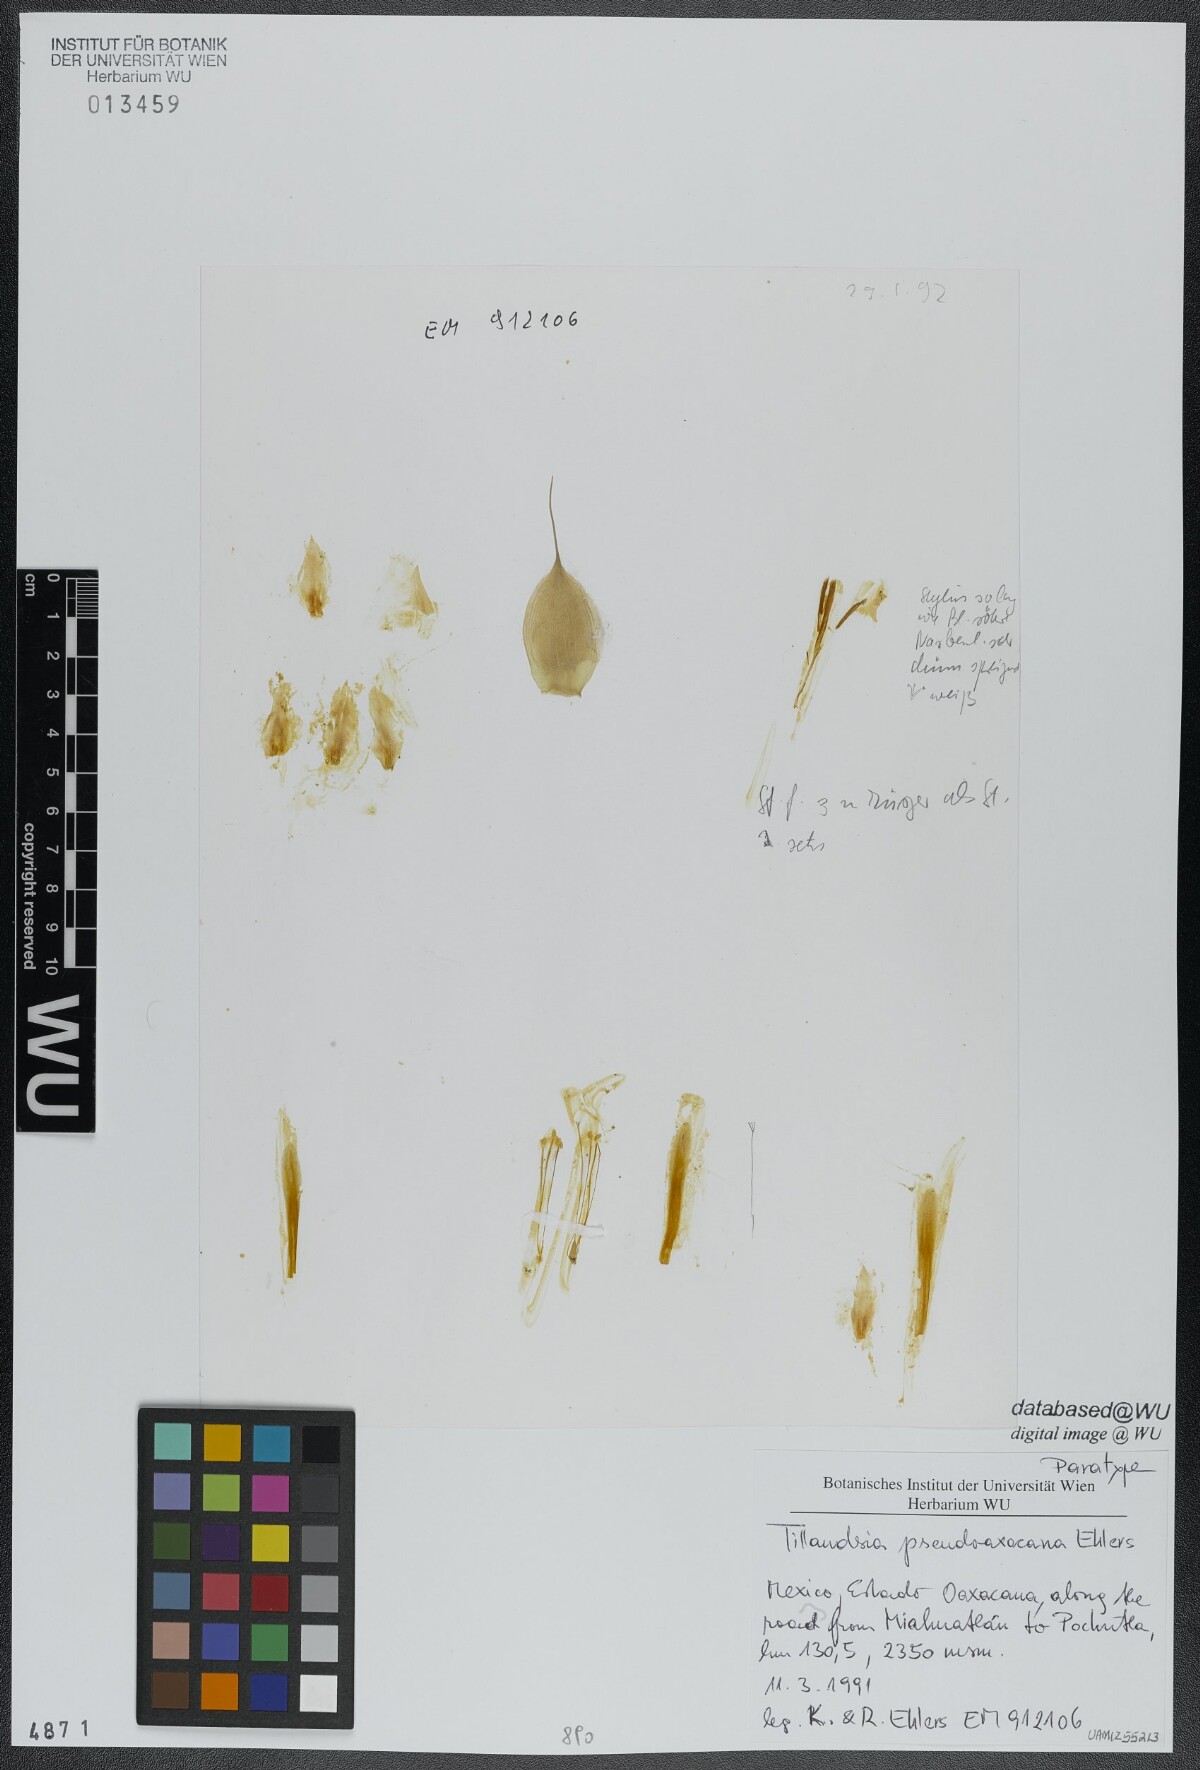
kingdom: Plantae
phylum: Tracheophyta
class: Liliopsida
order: Poales
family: Bromeliaceae
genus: Tillandsia
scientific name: Tillandsia pseudooaxacana
